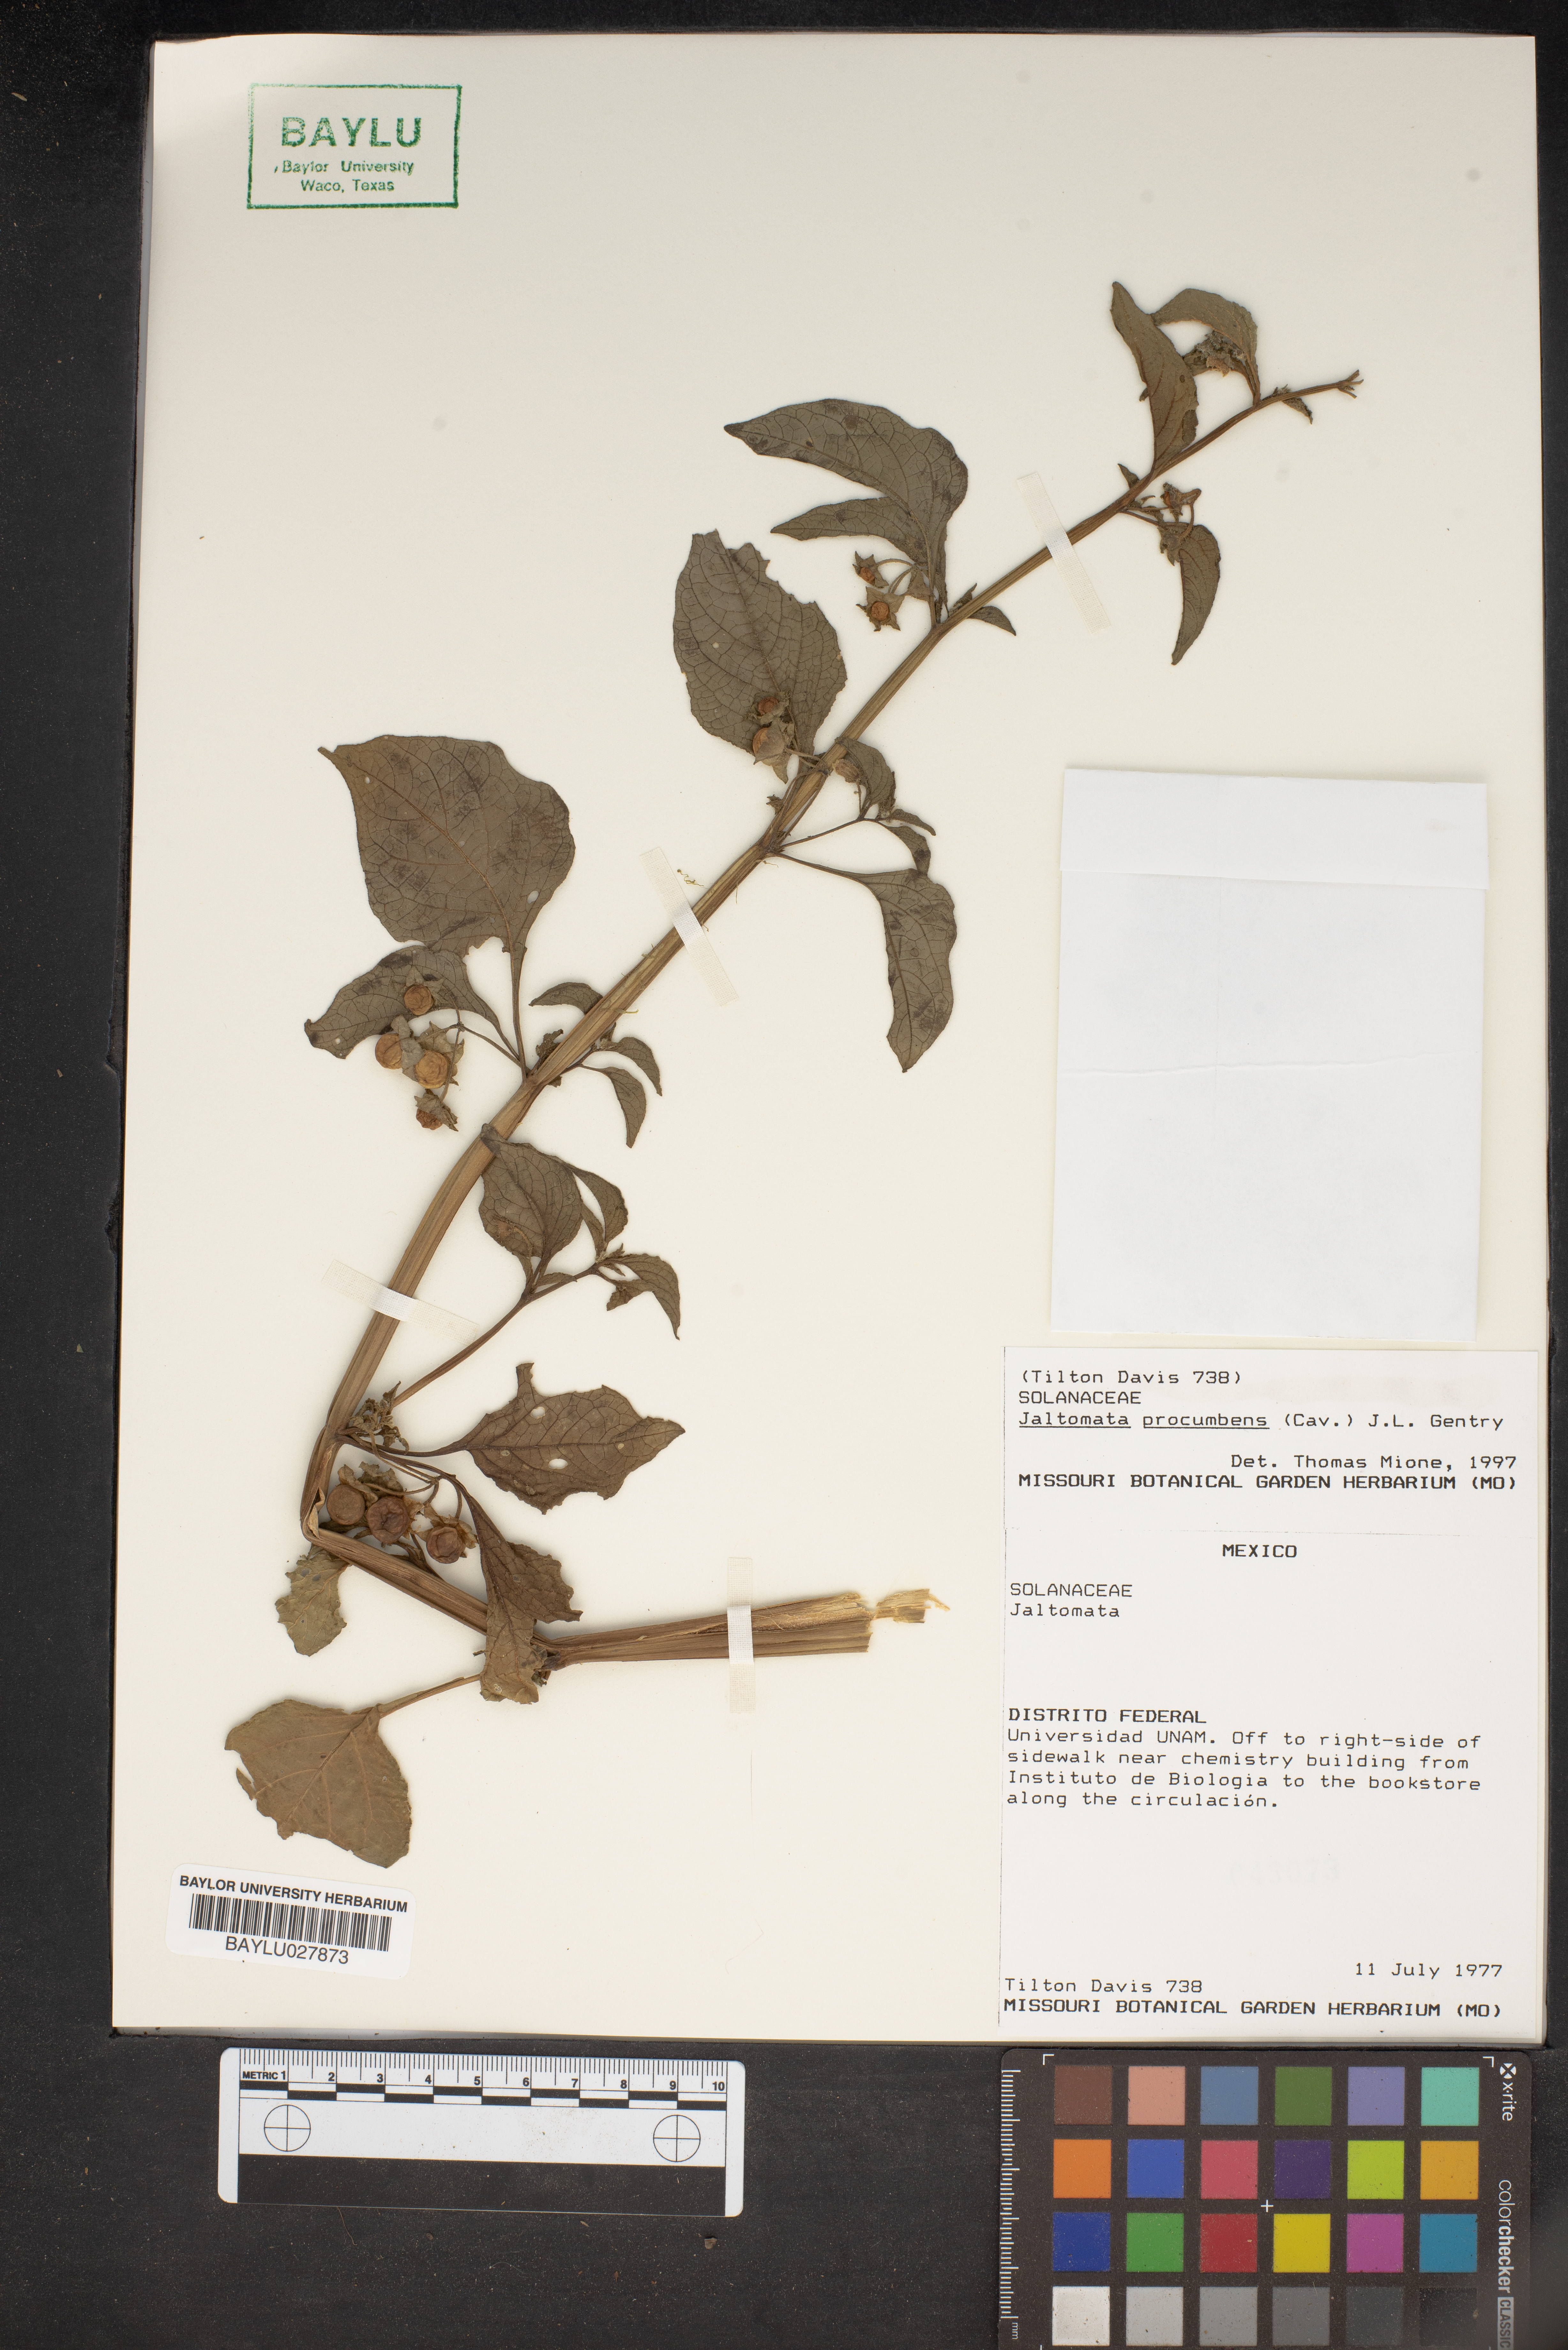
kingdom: Plantae
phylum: Tracheophyta
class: Magnoliopsida
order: Solanales
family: Solanaceae
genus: Jaltomata
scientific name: Jaltomata procumbens
